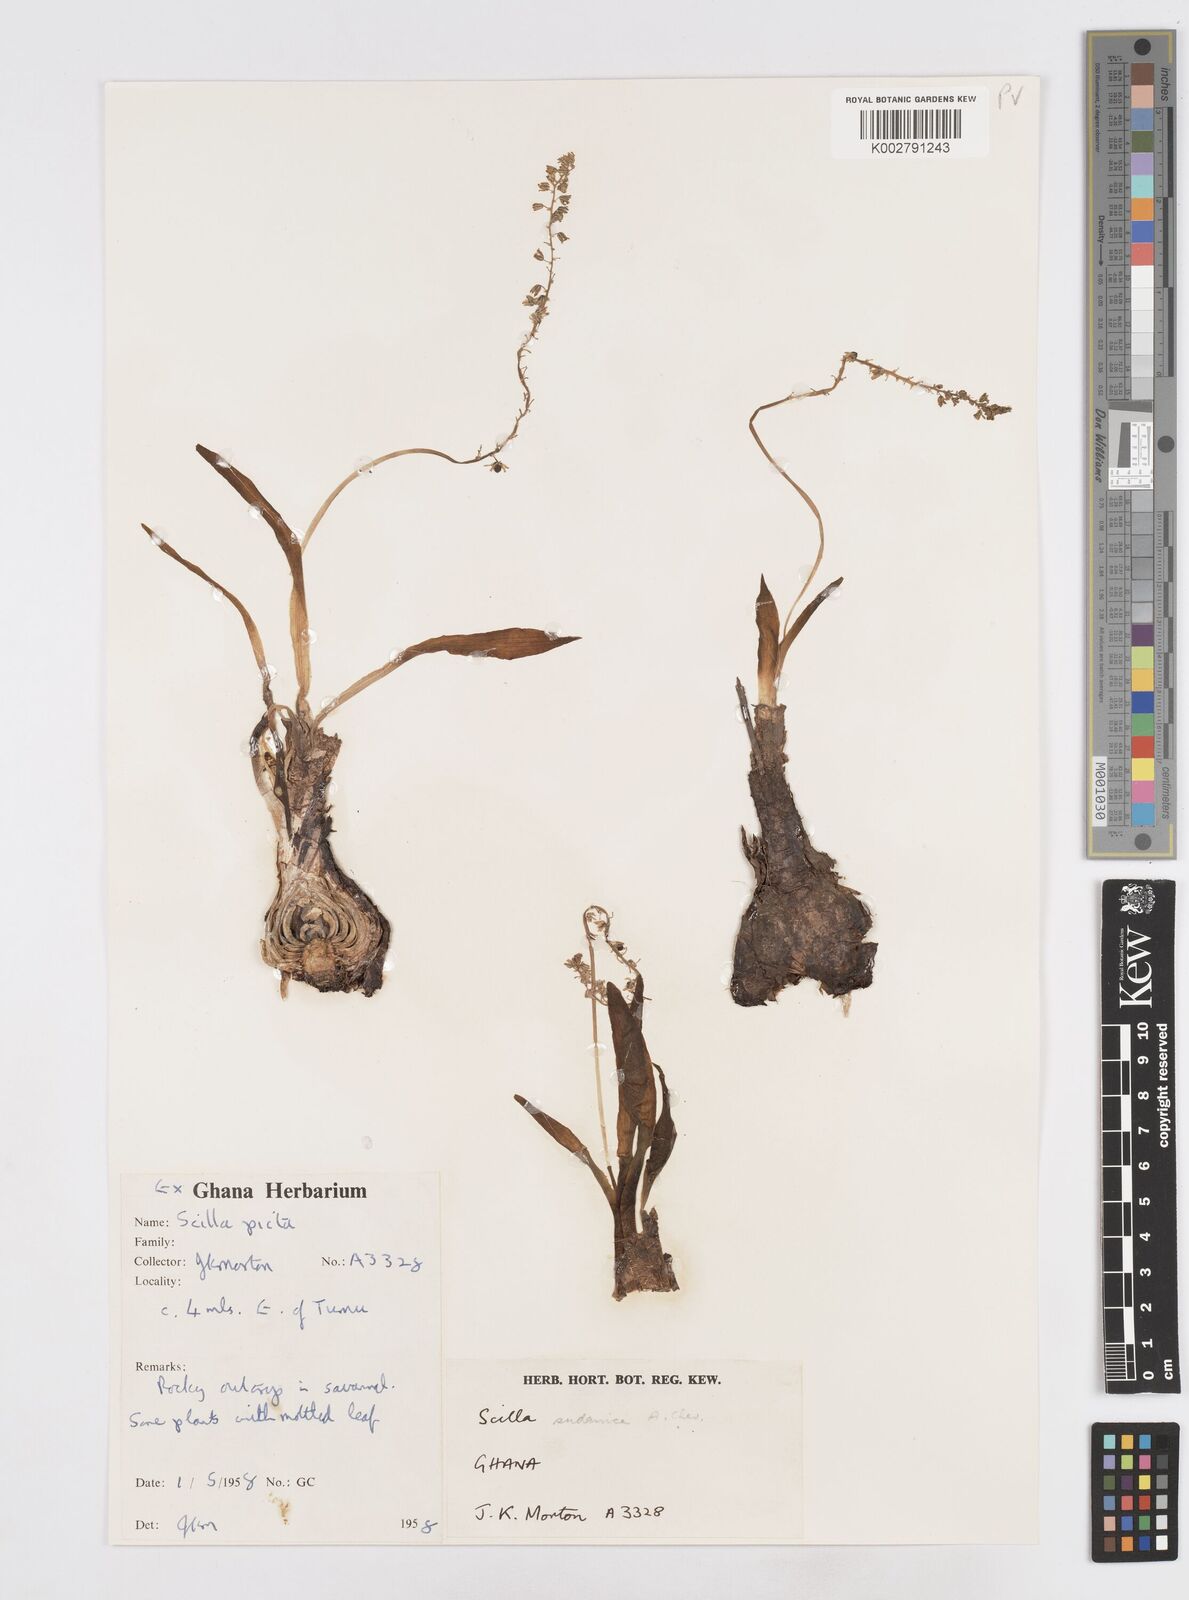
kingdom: Plantae
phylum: Tracheophyta
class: Liliopsida
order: Asparagales
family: Asparagaceae
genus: Ledebouria
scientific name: Ledebouria sudanica
